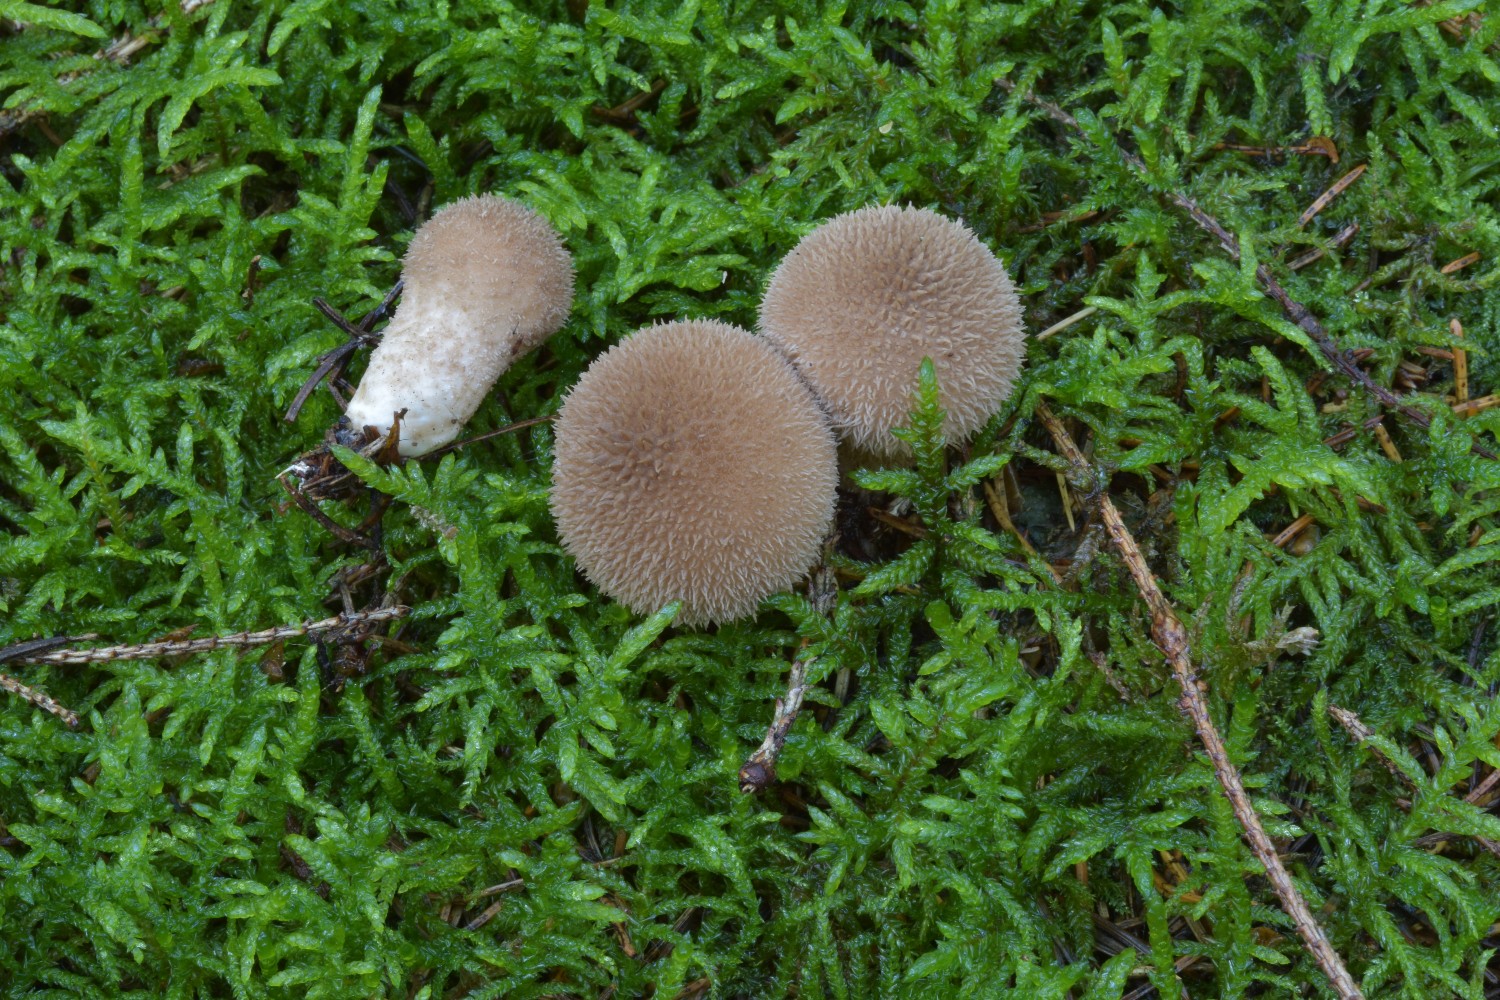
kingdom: Fungi
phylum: Basidiomycota
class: Agaricomycetes
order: Agaricales
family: Lycoperdaceae
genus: Lycoperdon
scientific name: Lycoperdon nigrescens
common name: sortagtig støvbold
